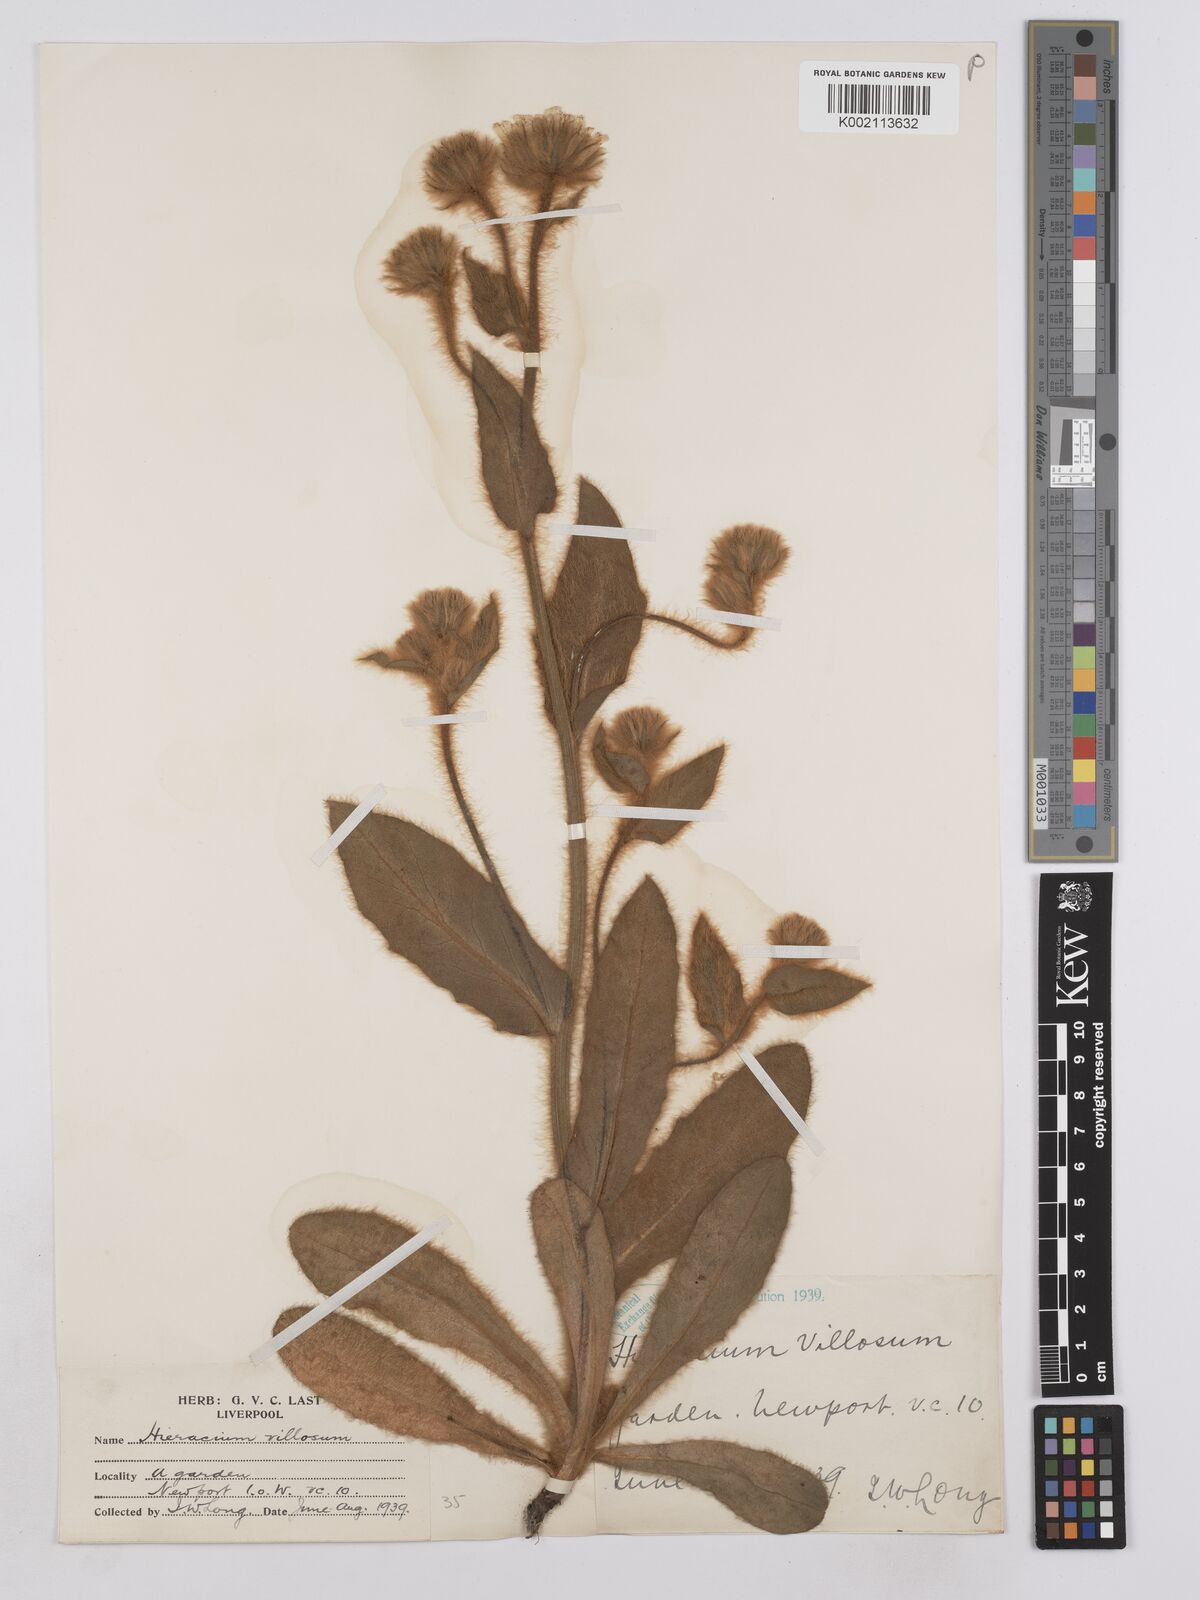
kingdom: Plantae
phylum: Tracheophyta
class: Magnoliopsida
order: Asterales
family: Asteraceae
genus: Hieracium
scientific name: Hieracium villosum
